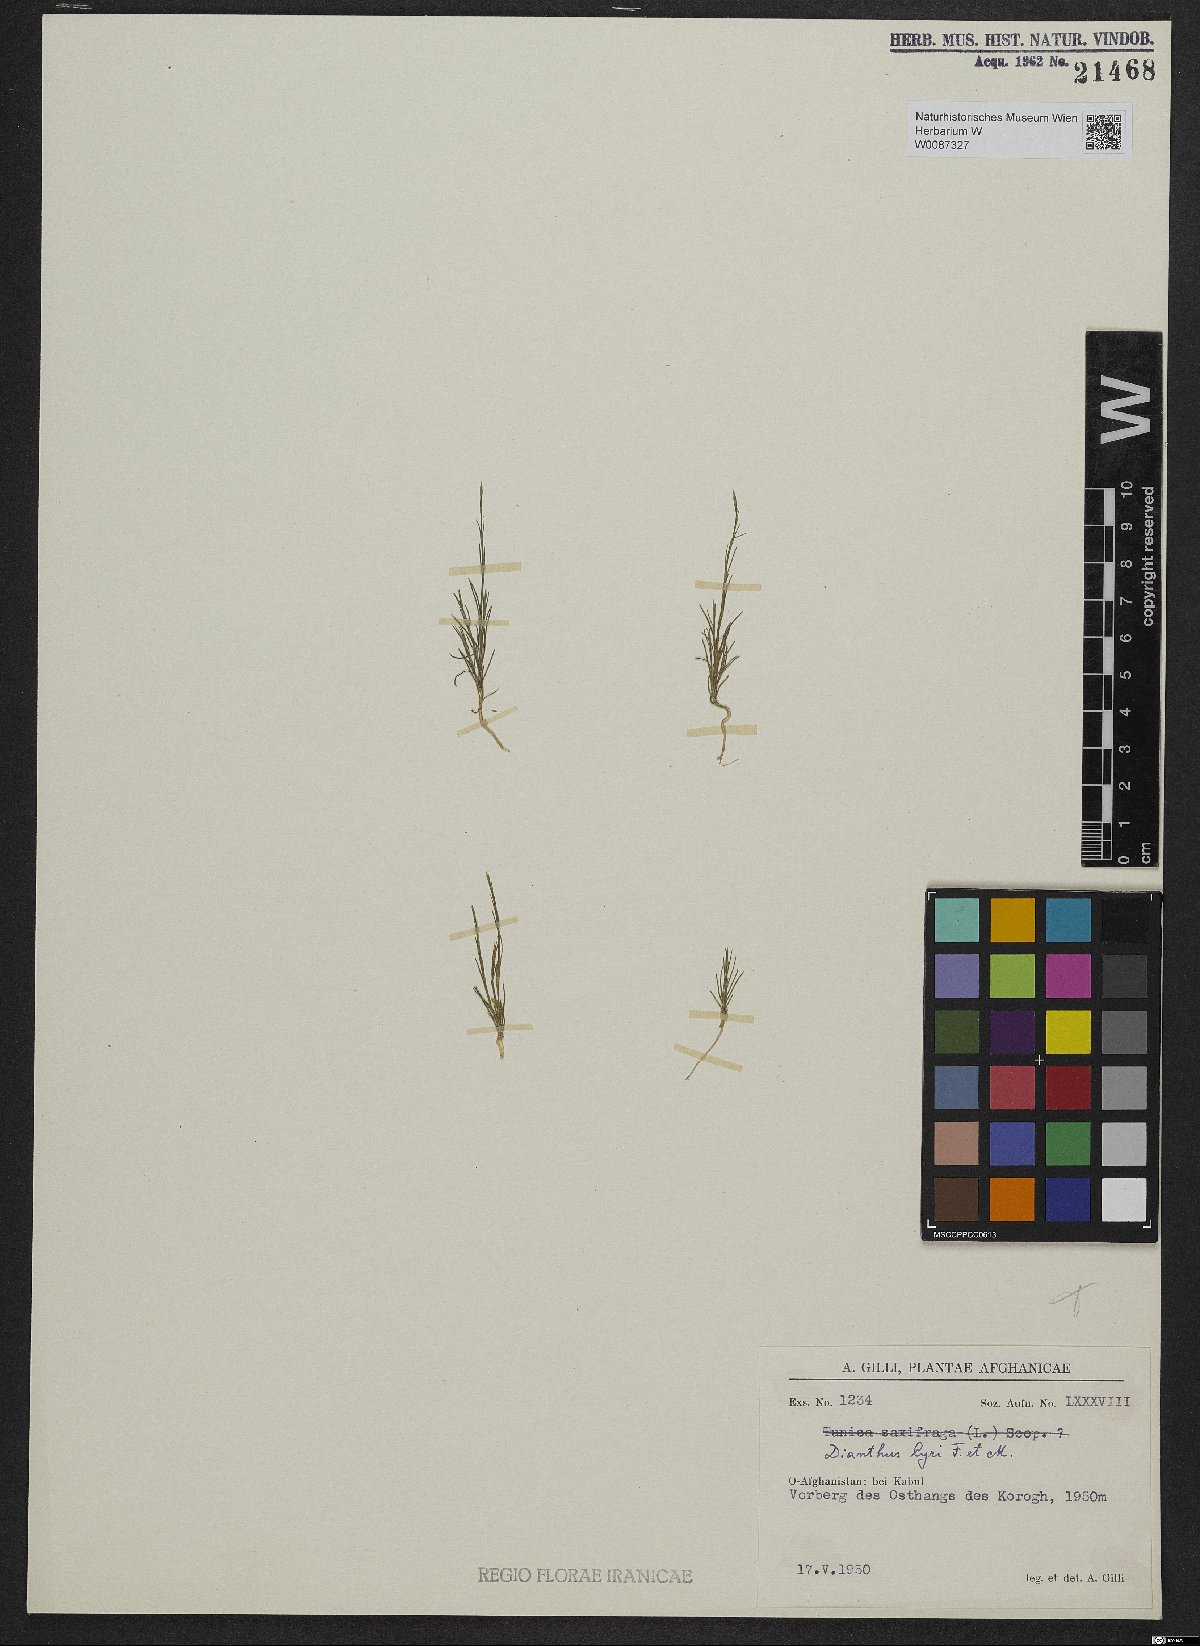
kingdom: Plantae
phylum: Tracheophyta
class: Magnoliopsida
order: Caryophyllales
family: Caryophyllaceae
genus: Dianthus
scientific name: Dianthus
